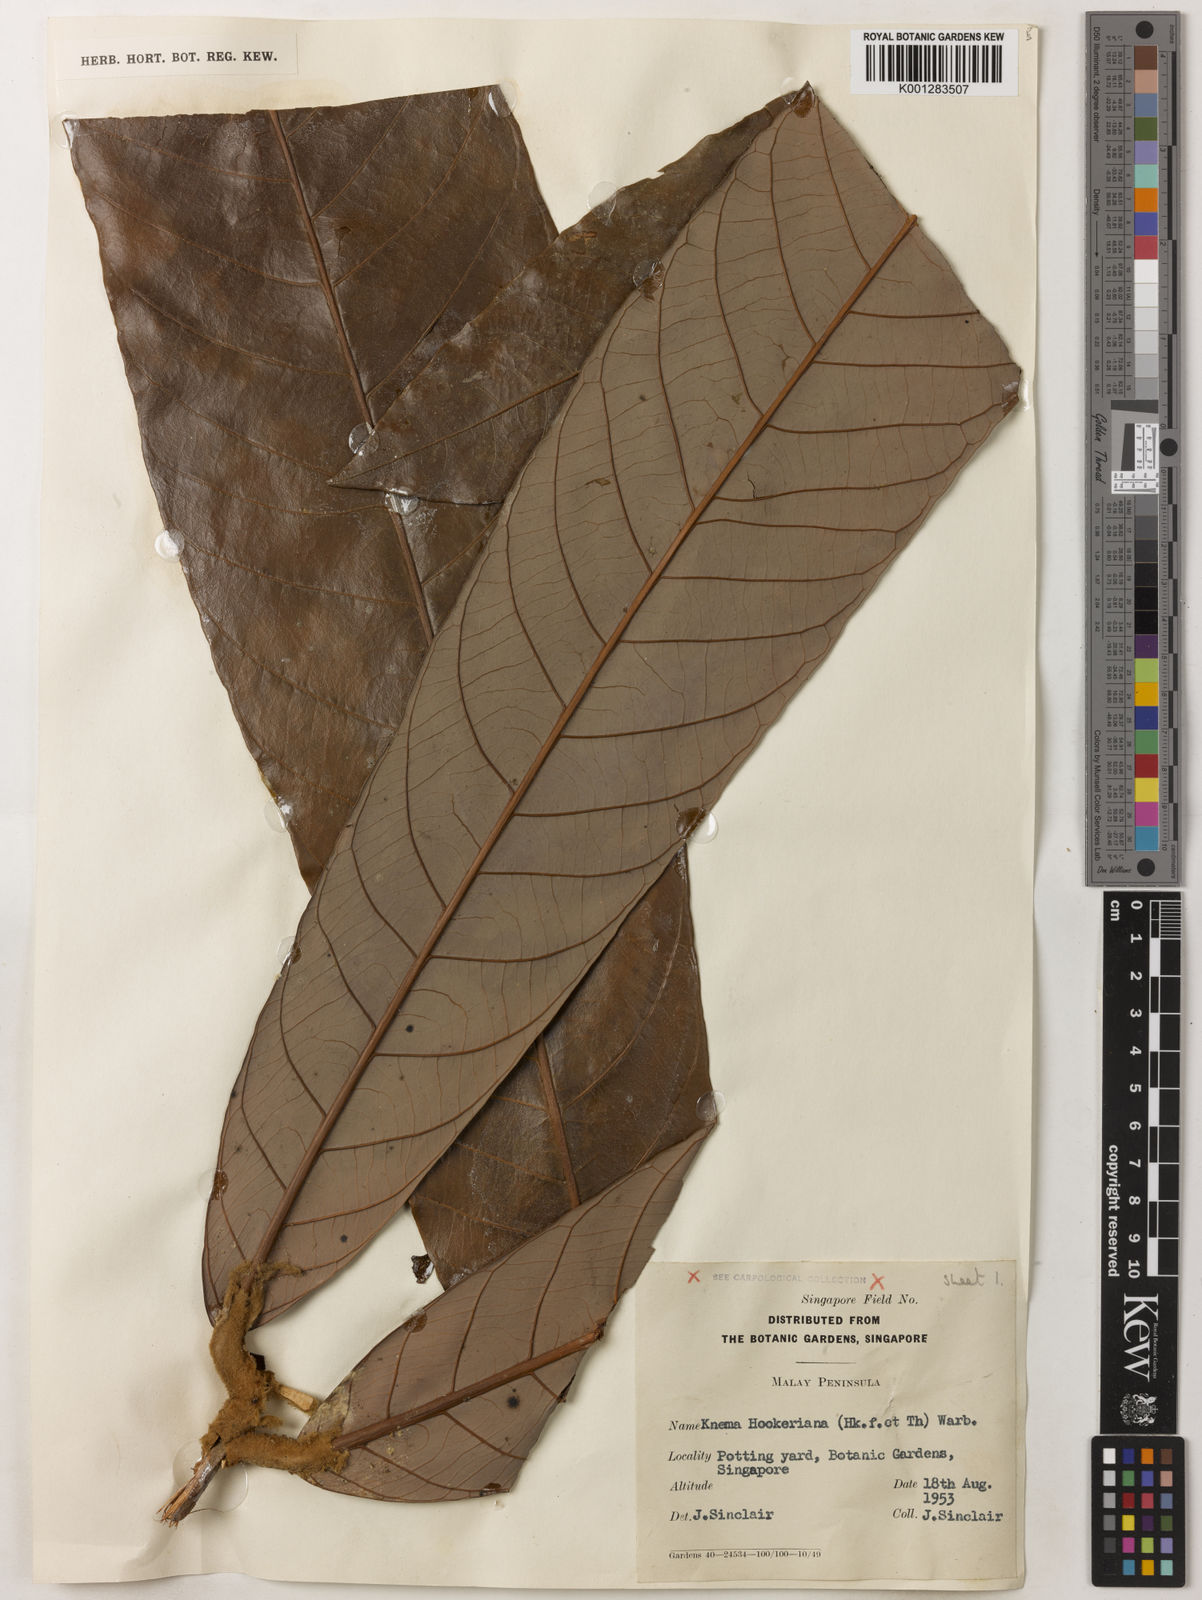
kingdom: Plantae
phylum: Tracheophyta
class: Magnoliopsida
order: Magnoliales
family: Myristicaceae
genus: Knema
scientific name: Knema hookeriana
